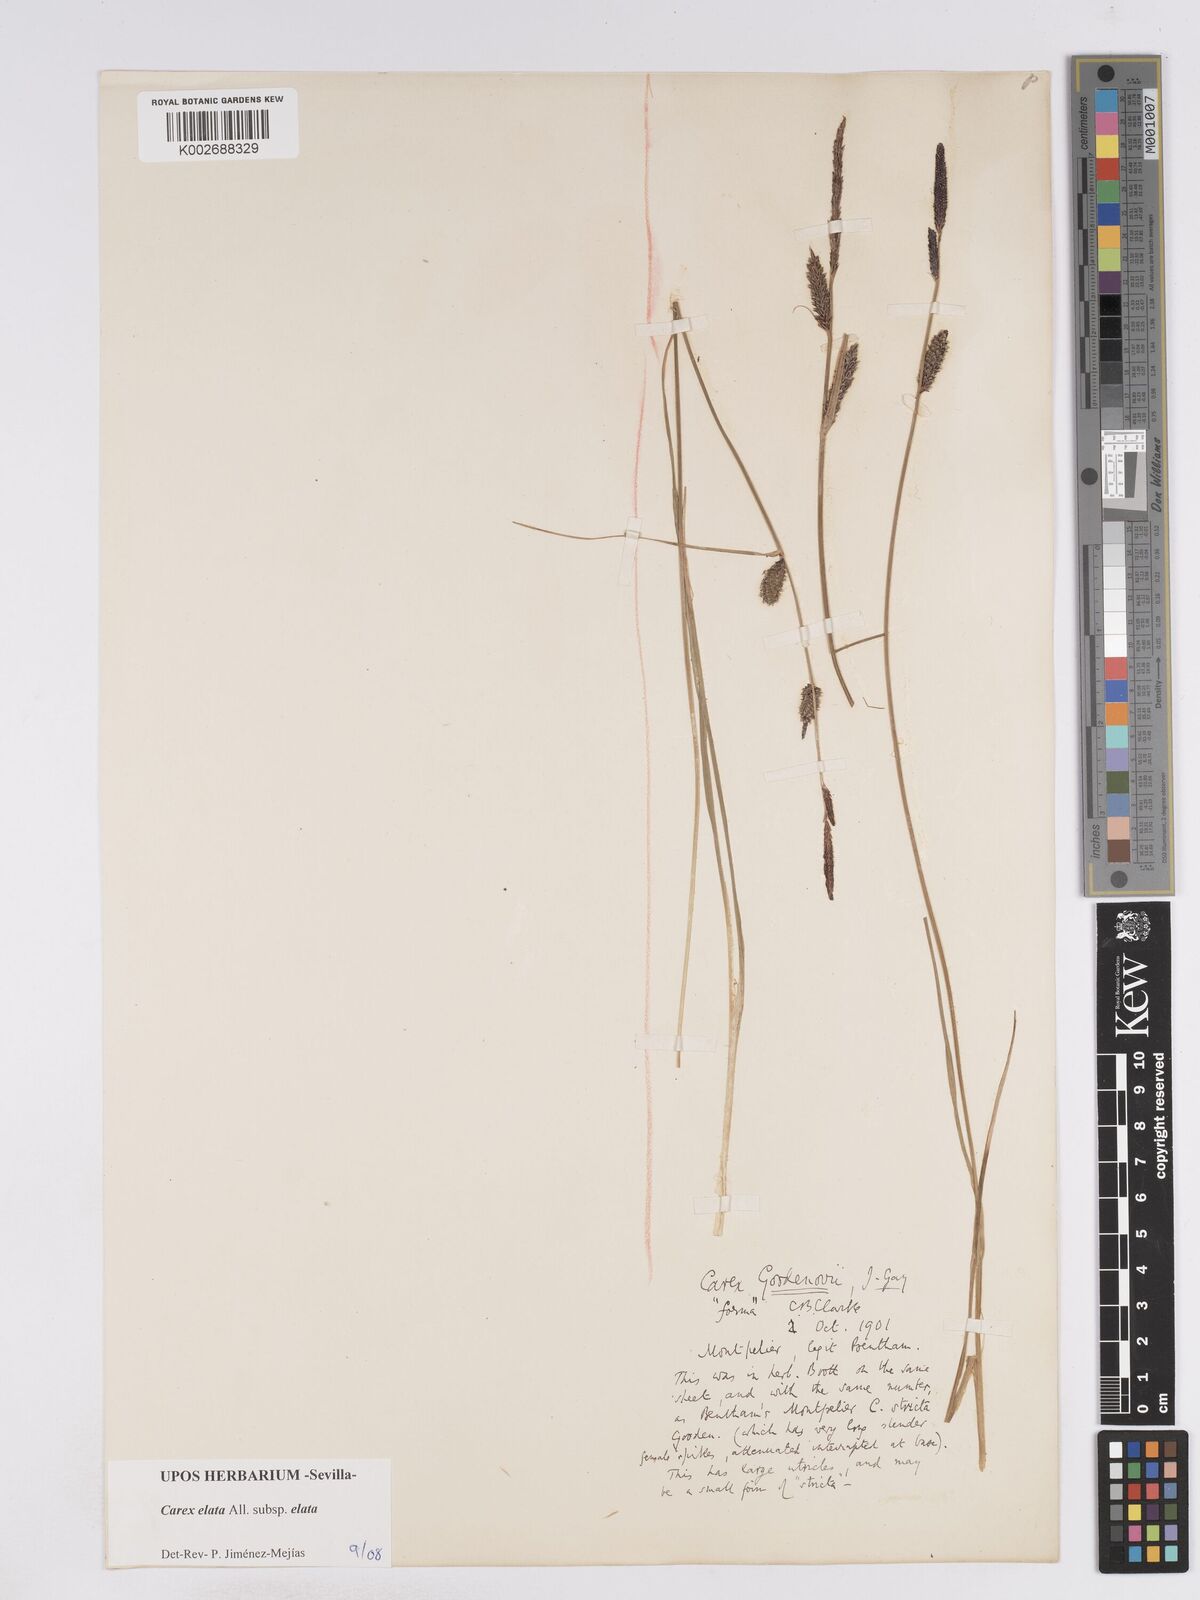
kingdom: Plantae
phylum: Tracheophyta
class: Liliopsida
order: Poales
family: Cyperaceae
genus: Carex
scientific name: Carex elata
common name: Tufted sedge
